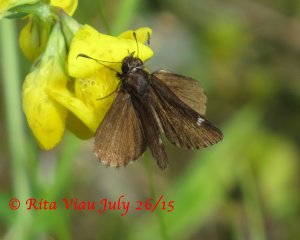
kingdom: Animalia
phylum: Arthropoda
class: Insecta
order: Lepidoptera
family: Hesperiidae
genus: Mastor
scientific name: Mastor vialis
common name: Common Roadside-Skipper
